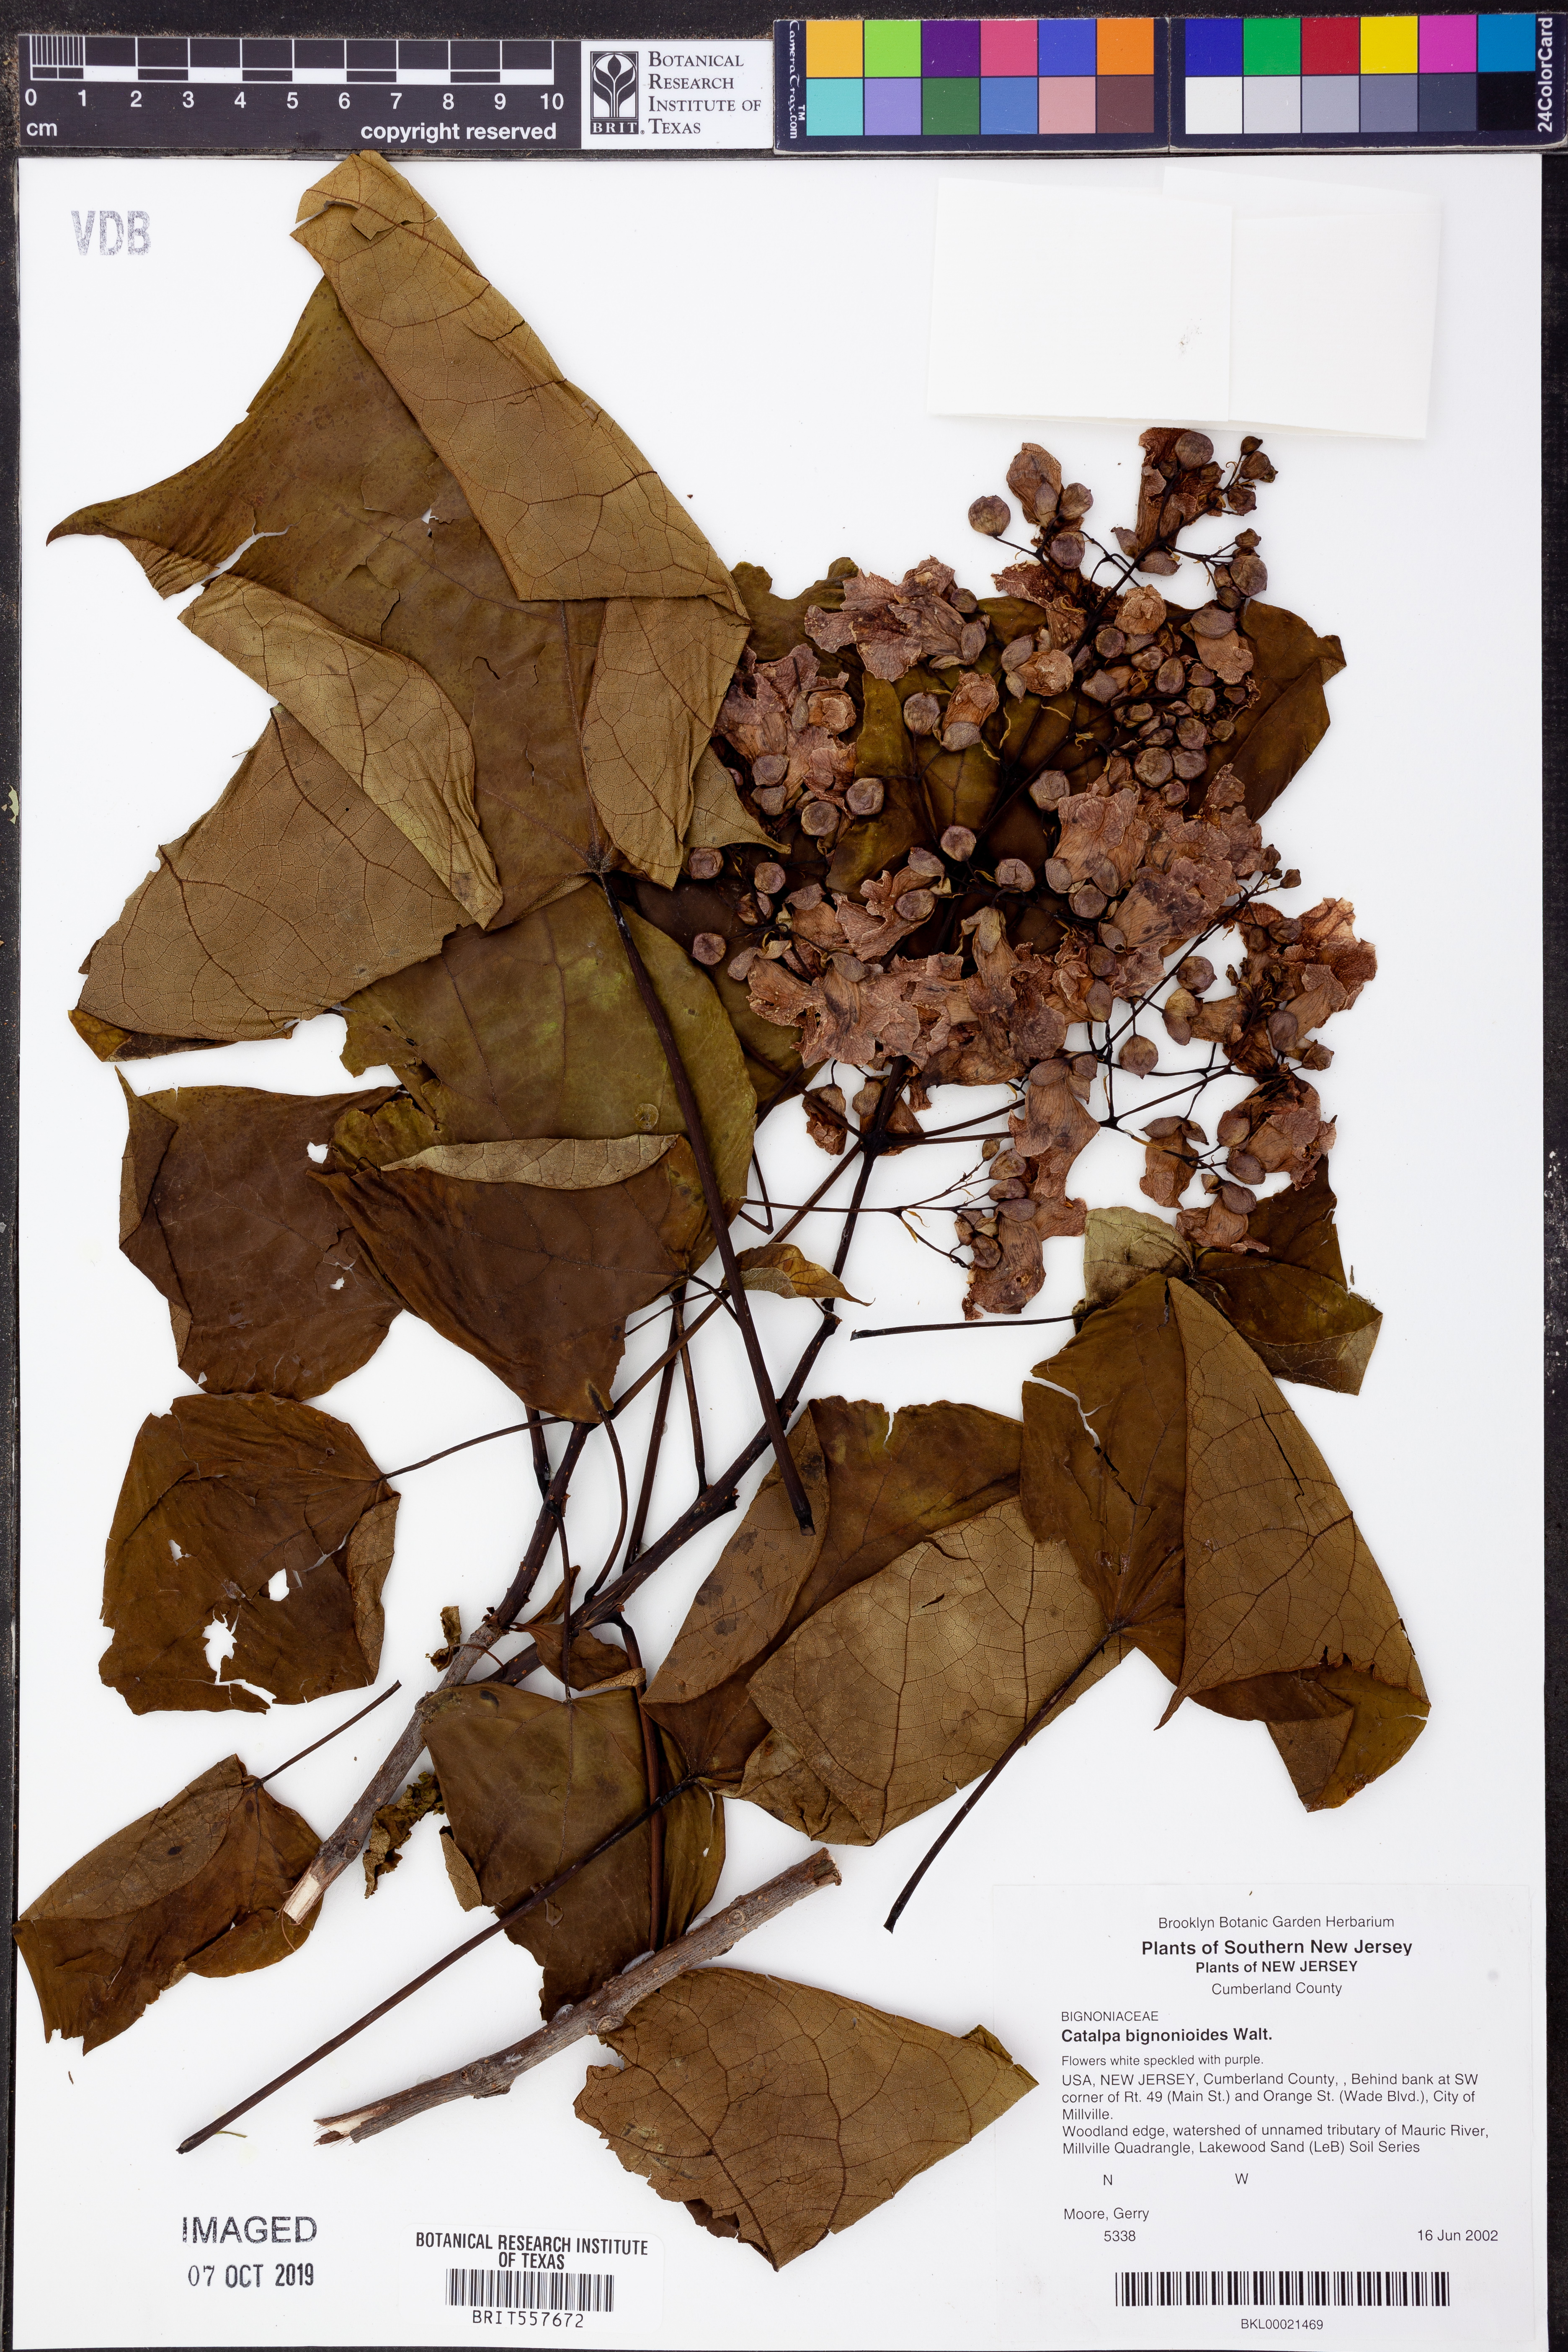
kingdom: Plantae
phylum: Tracheophyta
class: Magnoliopsida
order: Lamiales
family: Bignoniaceae
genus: Catalpa
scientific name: Catalpa bignonioides
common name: Southern catalpa
